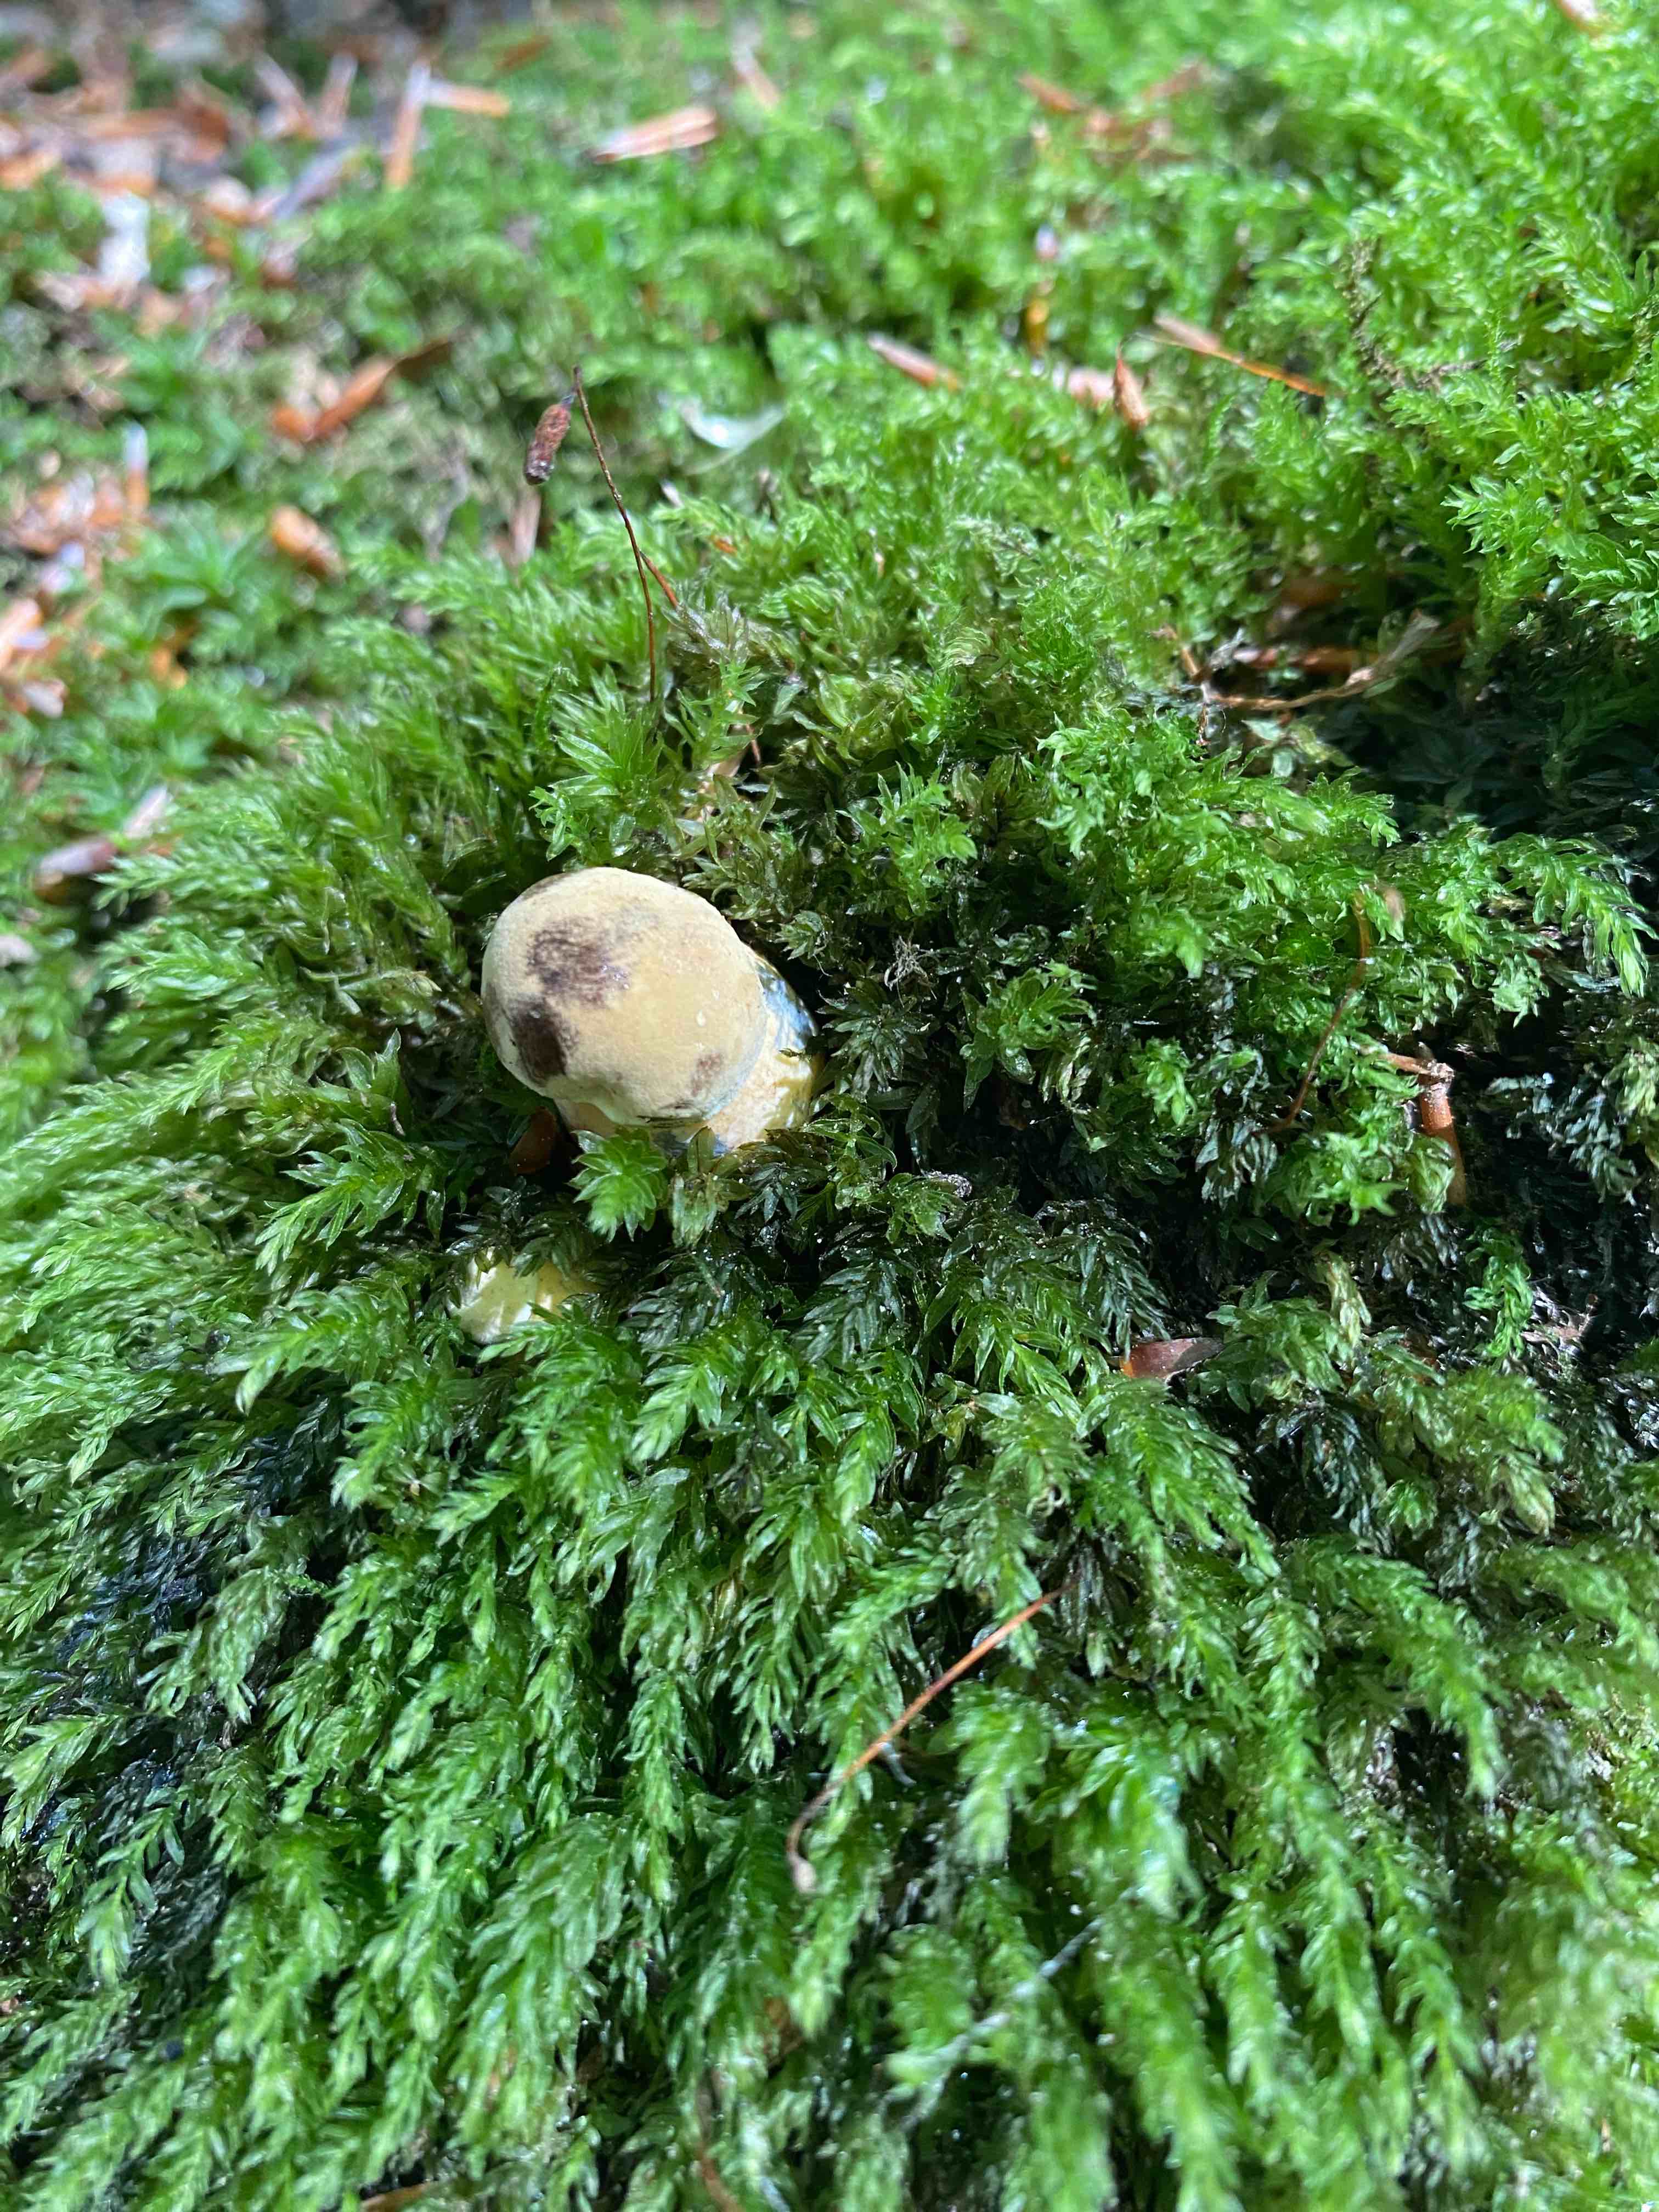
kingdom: Fungi
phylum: Basidiomycota
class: Agaricomycetes
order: Boletales
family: Boletaceae
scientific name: Boletaceae
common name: rørhatfamilien
